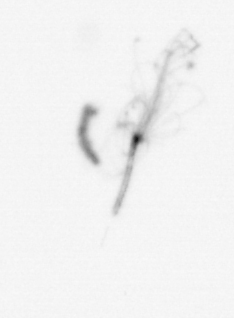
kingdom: Chromista
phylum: Ochrophyta
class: Bacillariophyceae
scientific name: Bacillariophyceae
